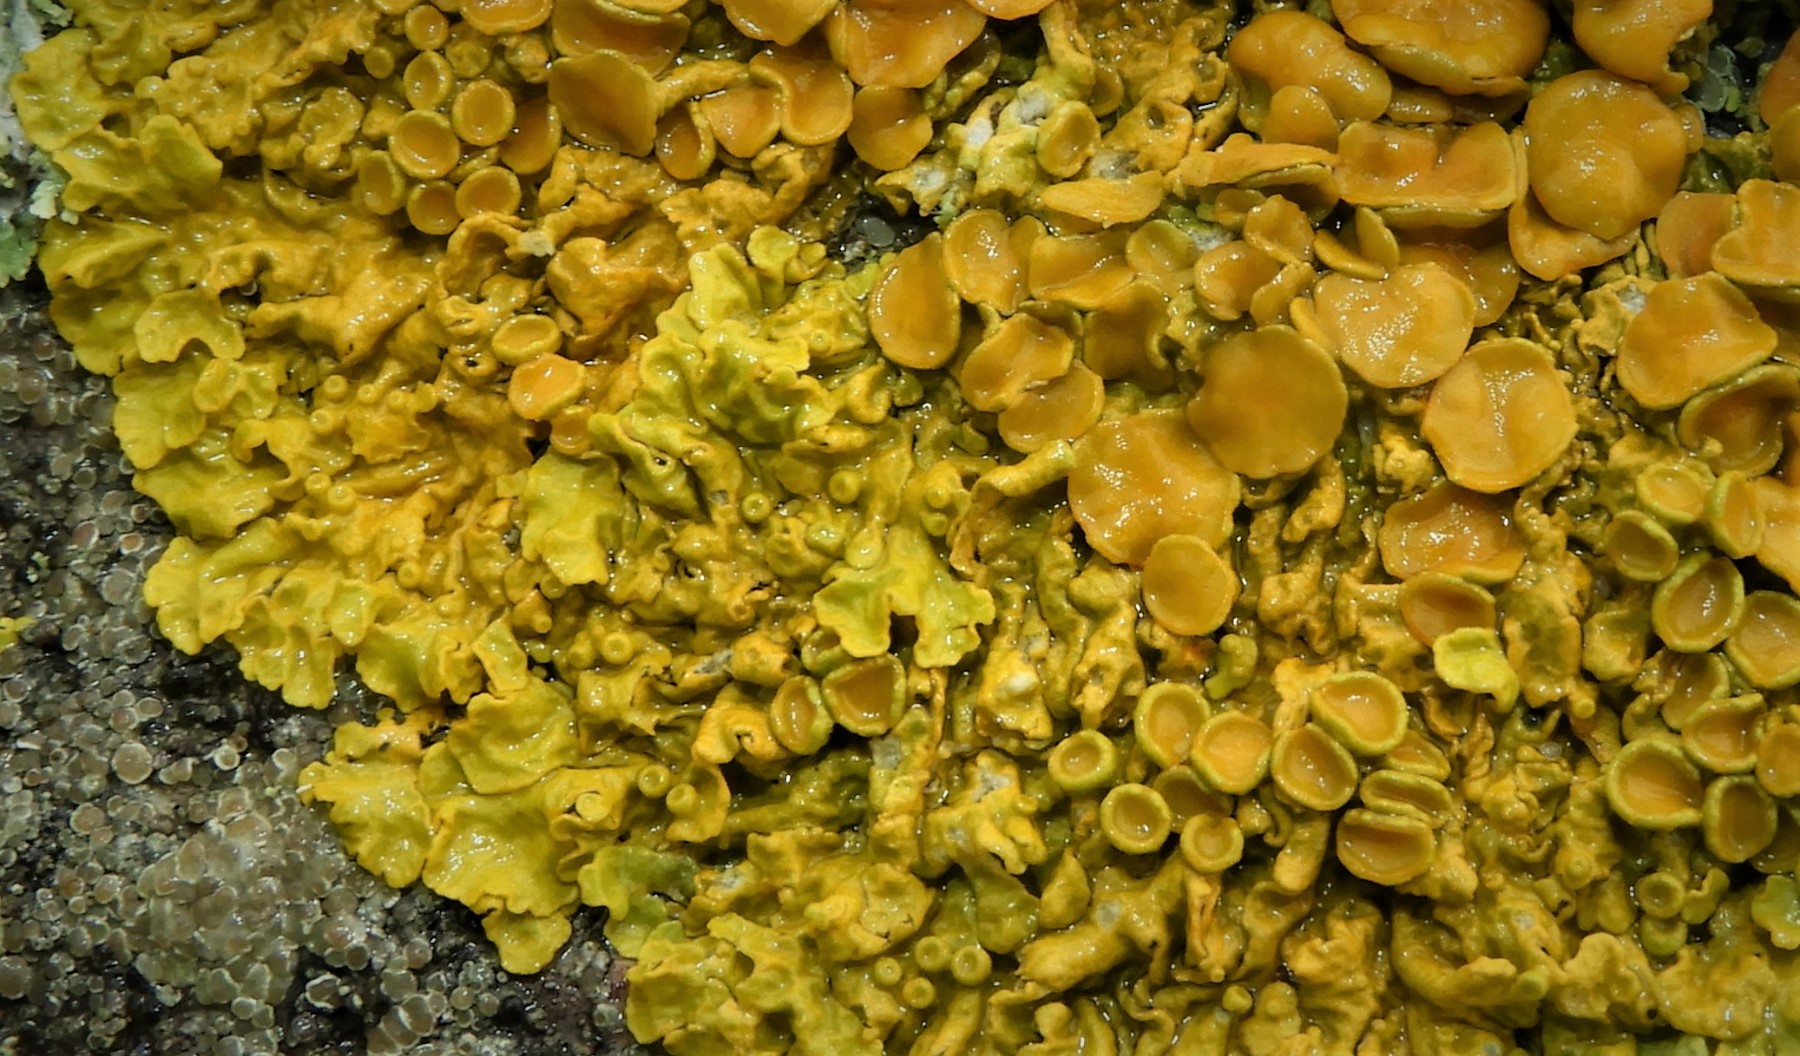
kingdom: Fungi
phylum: Ascomycota
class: Lecanoromycetes
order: Teloschistales
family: Teloschistaceae
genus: Xanthoria
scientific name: Xanthoria parietina
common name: almindelig væggelav
